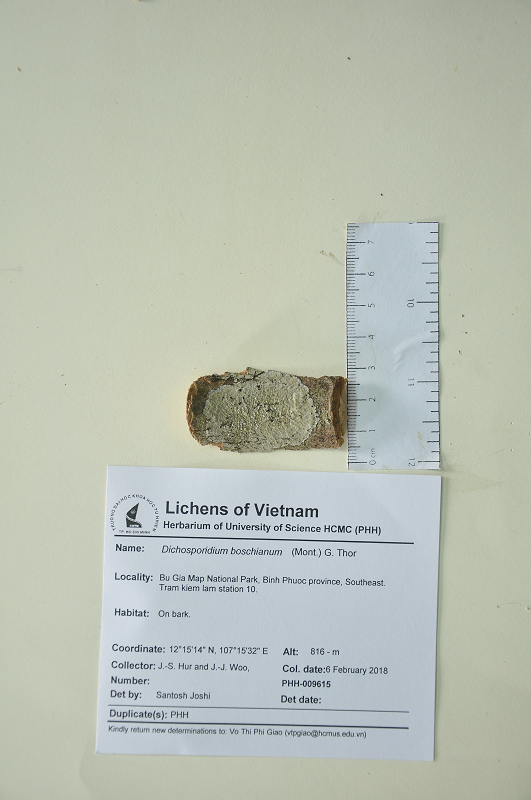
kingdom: Fungi
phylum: Ascomycota
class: Arthoniomycetes
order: Arthoniales
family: Roccellaceae
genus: Dichosporidium
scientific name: Dichosporidium boschianum
